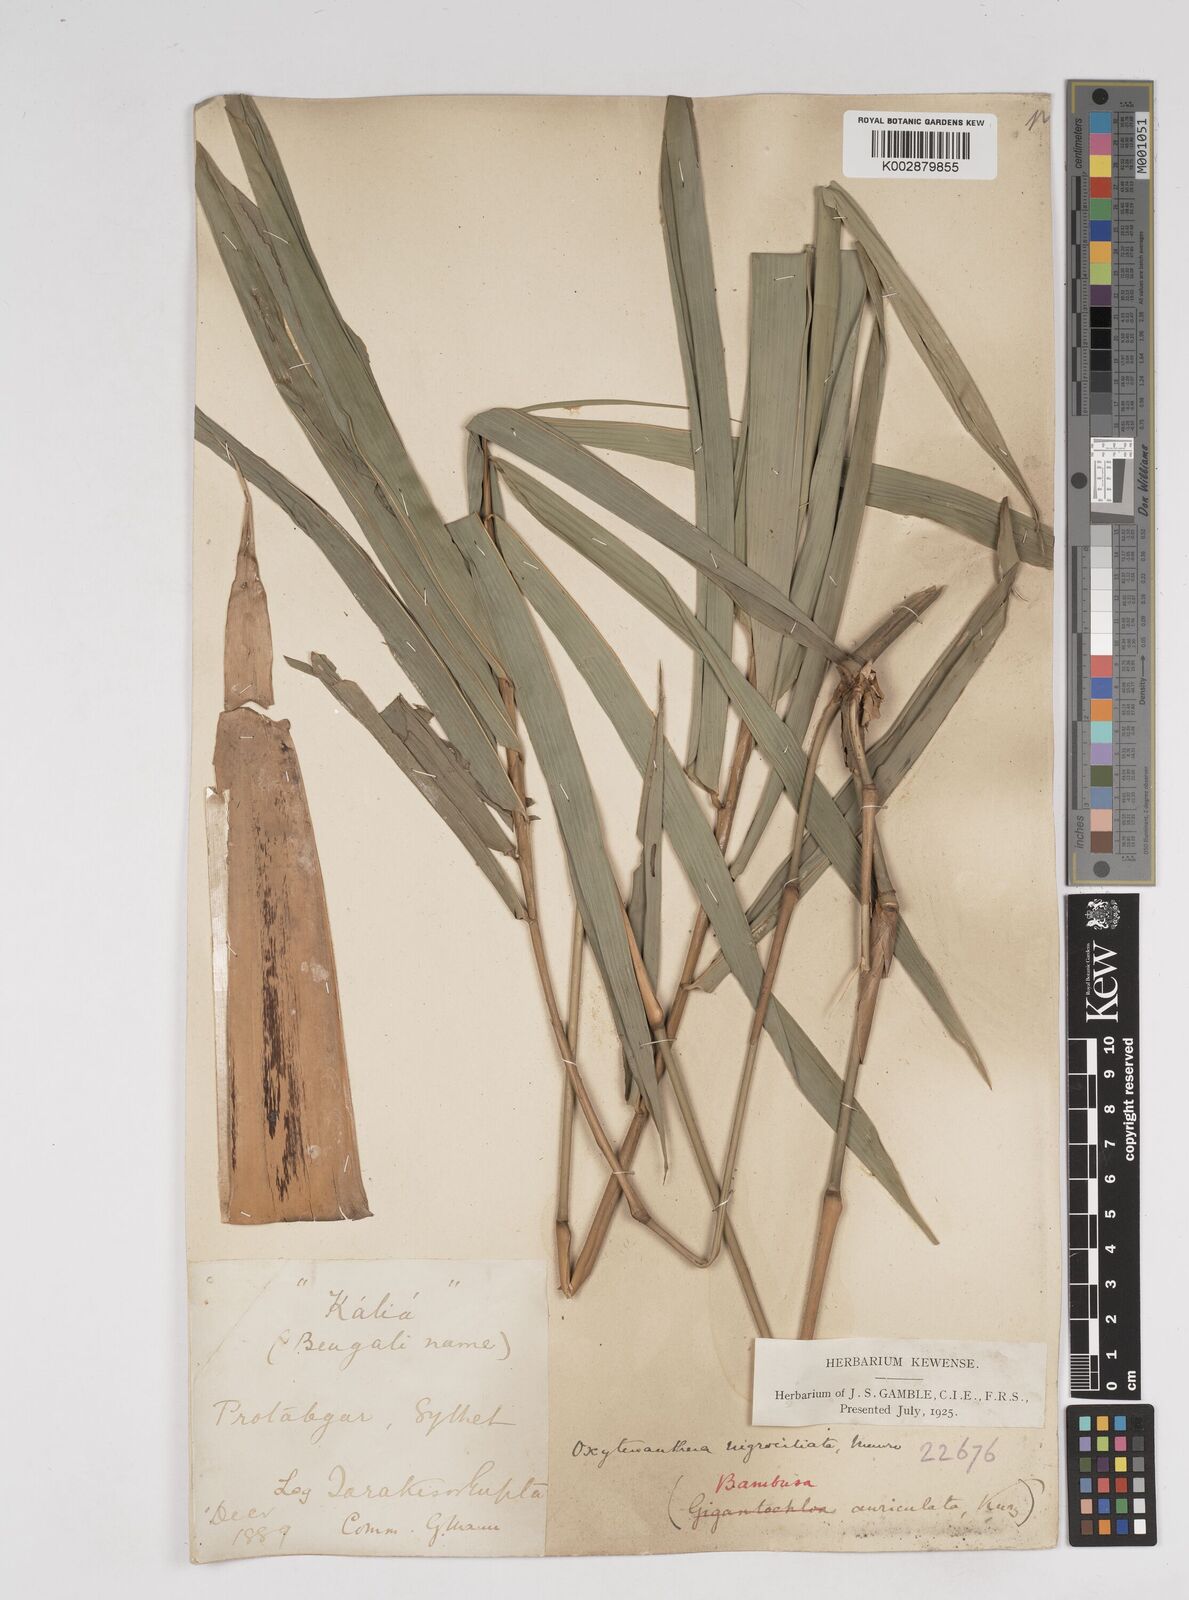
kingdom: Plantae
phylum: Tracheophyta
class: Liliopsida
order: Poales
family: Poaceae
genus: Gigantochloa
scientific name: Gigantochloa
